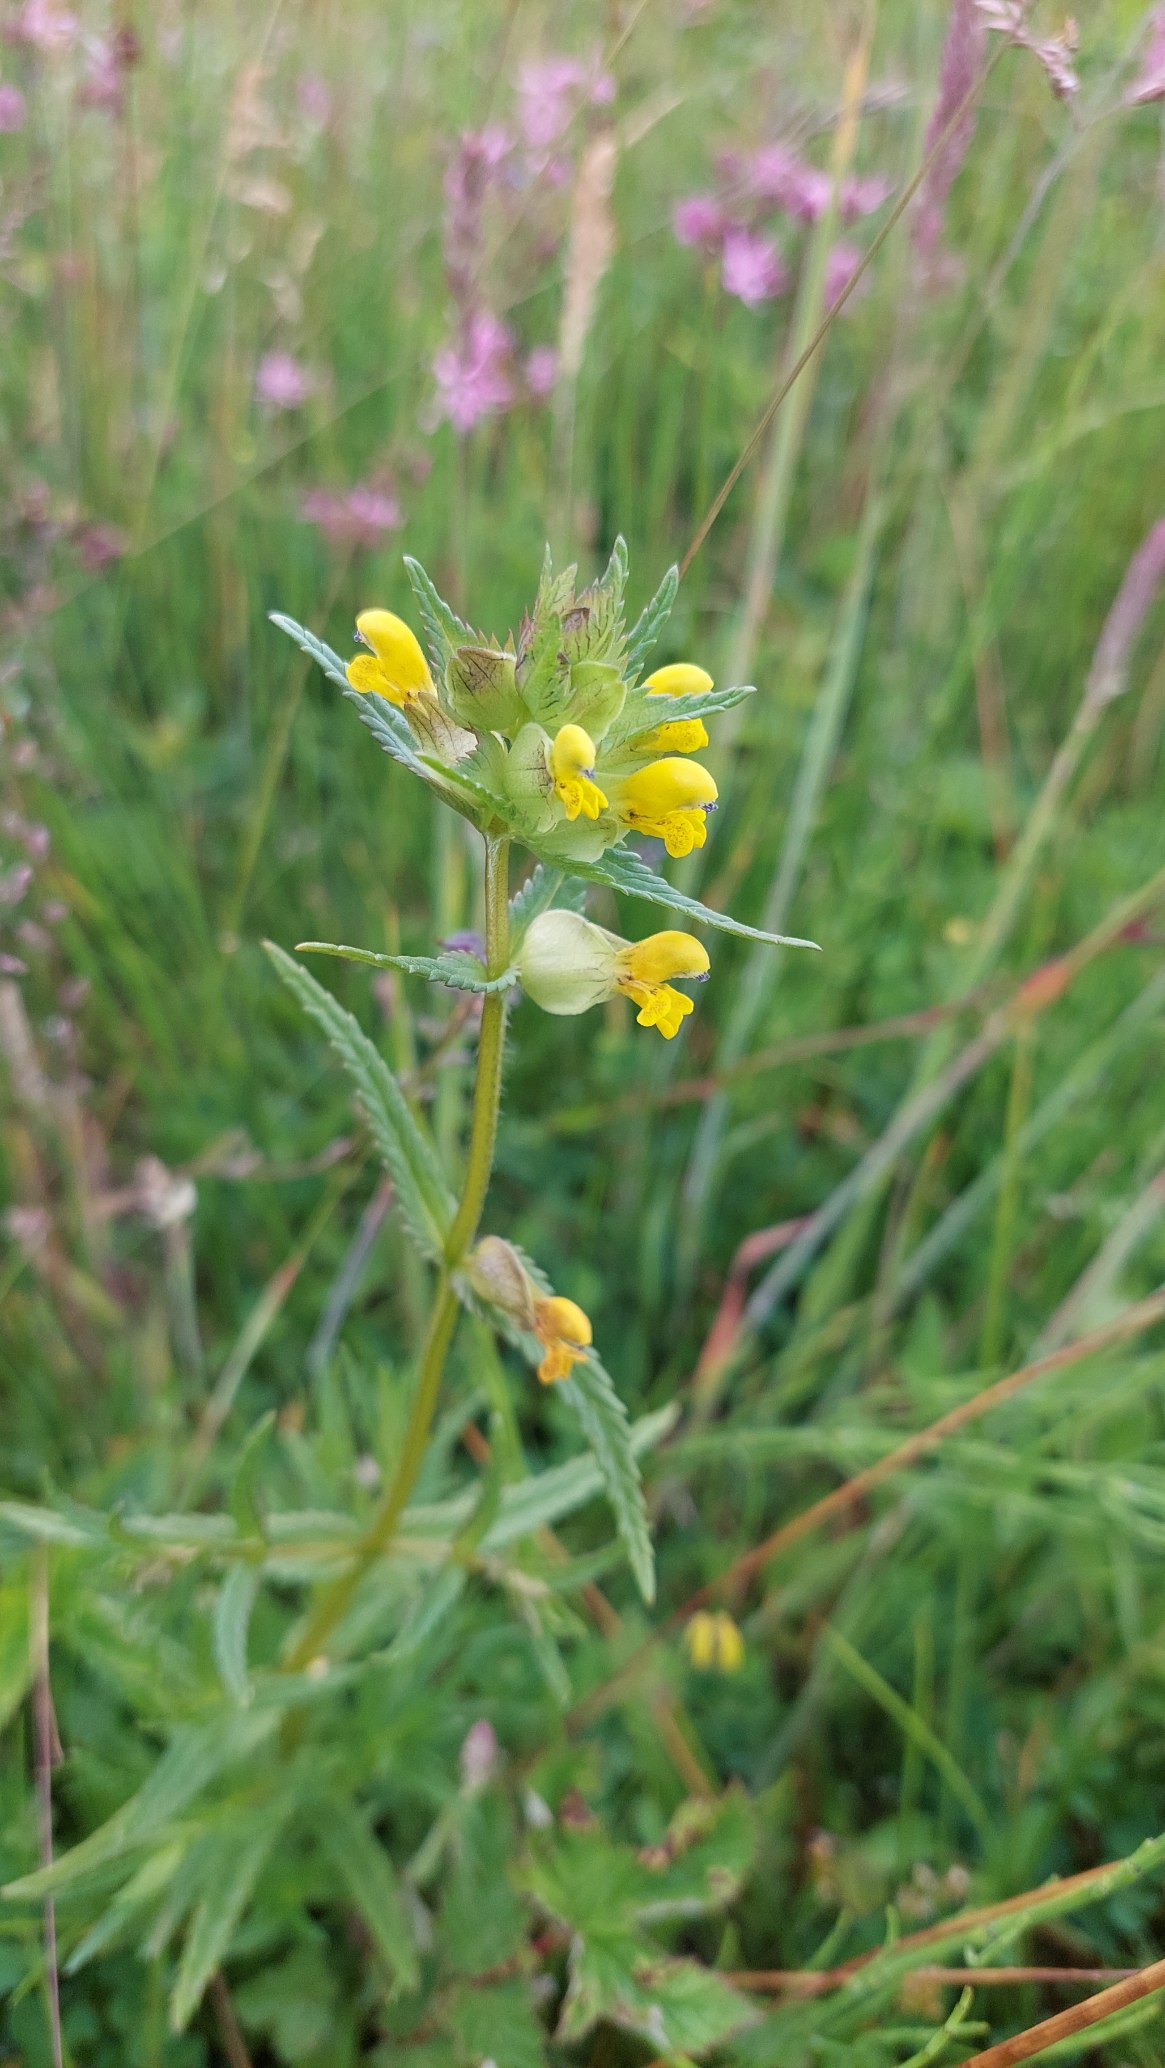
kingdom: Plantae
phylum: Tracheophyta
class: Magnoliopsida
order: Lamiales
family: Orobanchaceae
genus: Rhinanthus
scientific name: Rhinanthus minor
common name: Liden skjaller
